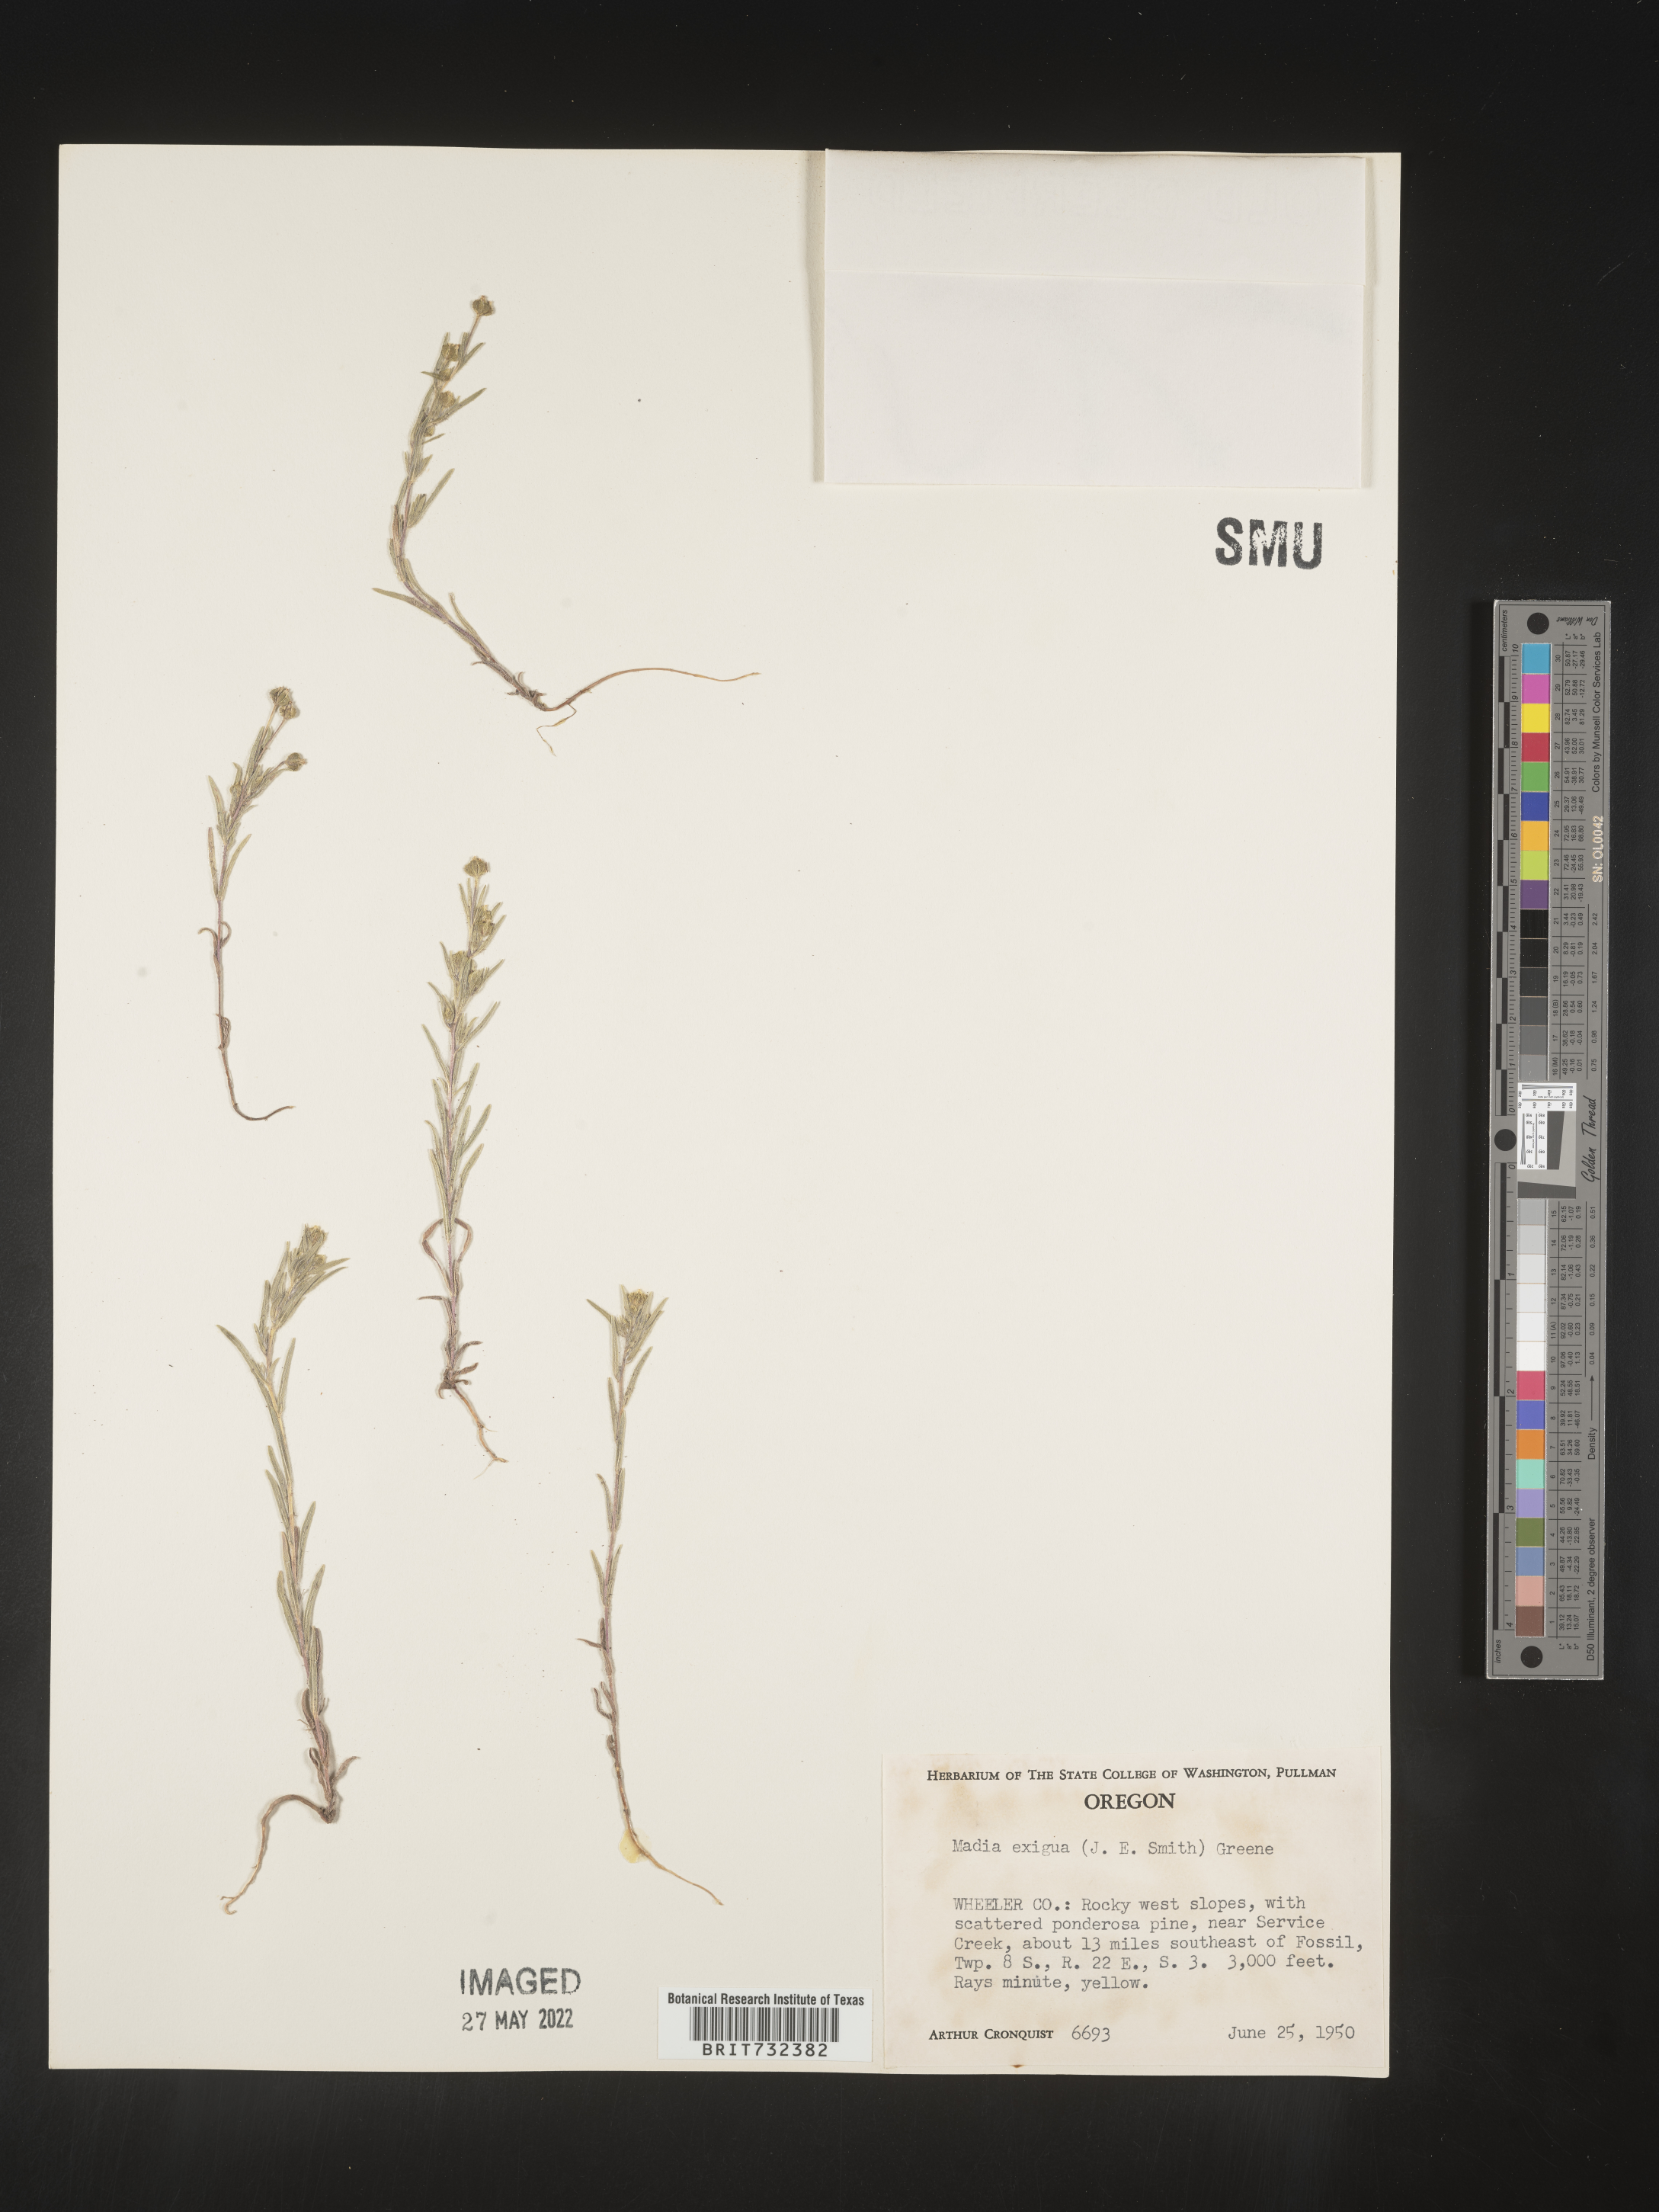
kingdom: Plantae
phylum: Tracheophyta
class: Magnoliopsida
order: Asterales
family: Asteraceae
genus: Madia
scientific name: Madia
